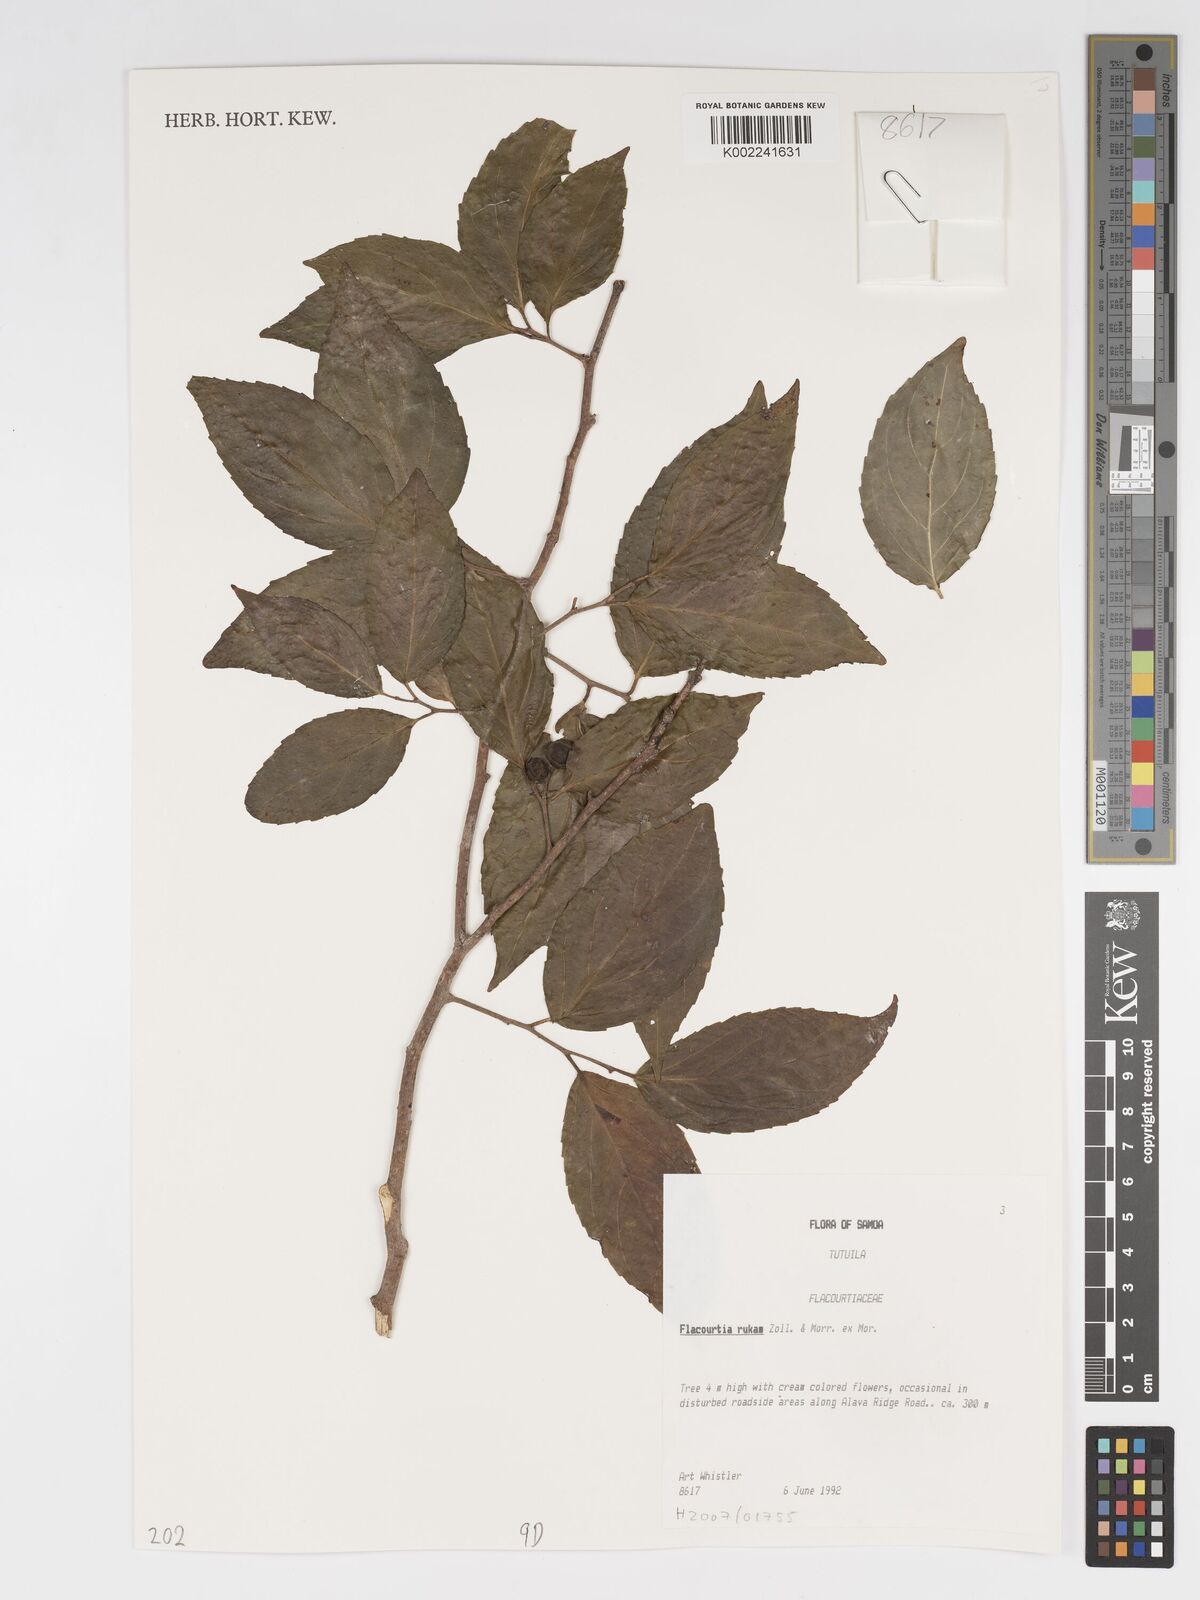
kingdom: Plantae
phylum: Tracheophyta
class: Magnoliopsida
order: Malpighiales
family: Salicaceae
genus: Flacourtia
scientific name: Flacourtia rukam
